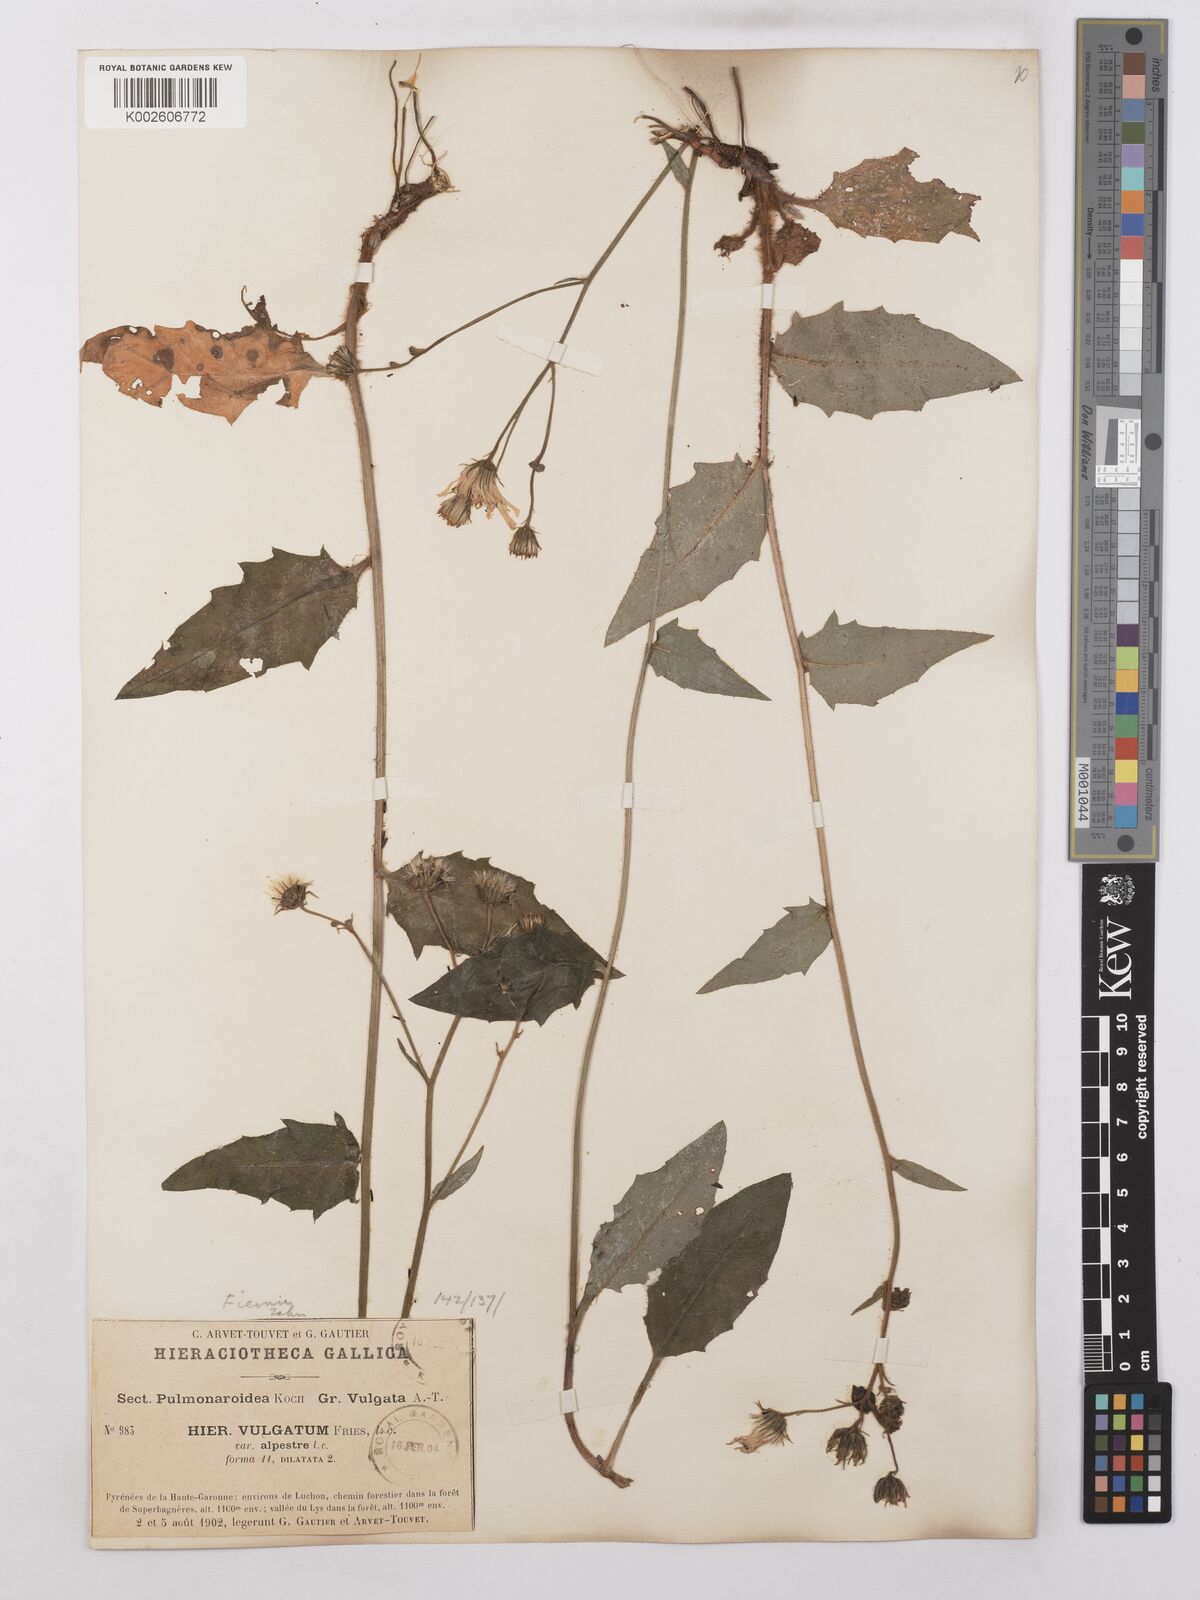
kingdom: Plantae
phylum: Tracheophyta
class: Magnoliopsida
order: Asterales
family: Asteraceae
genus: Hieracium
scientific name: Hieracium lachenalii
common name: Common hawkweed
